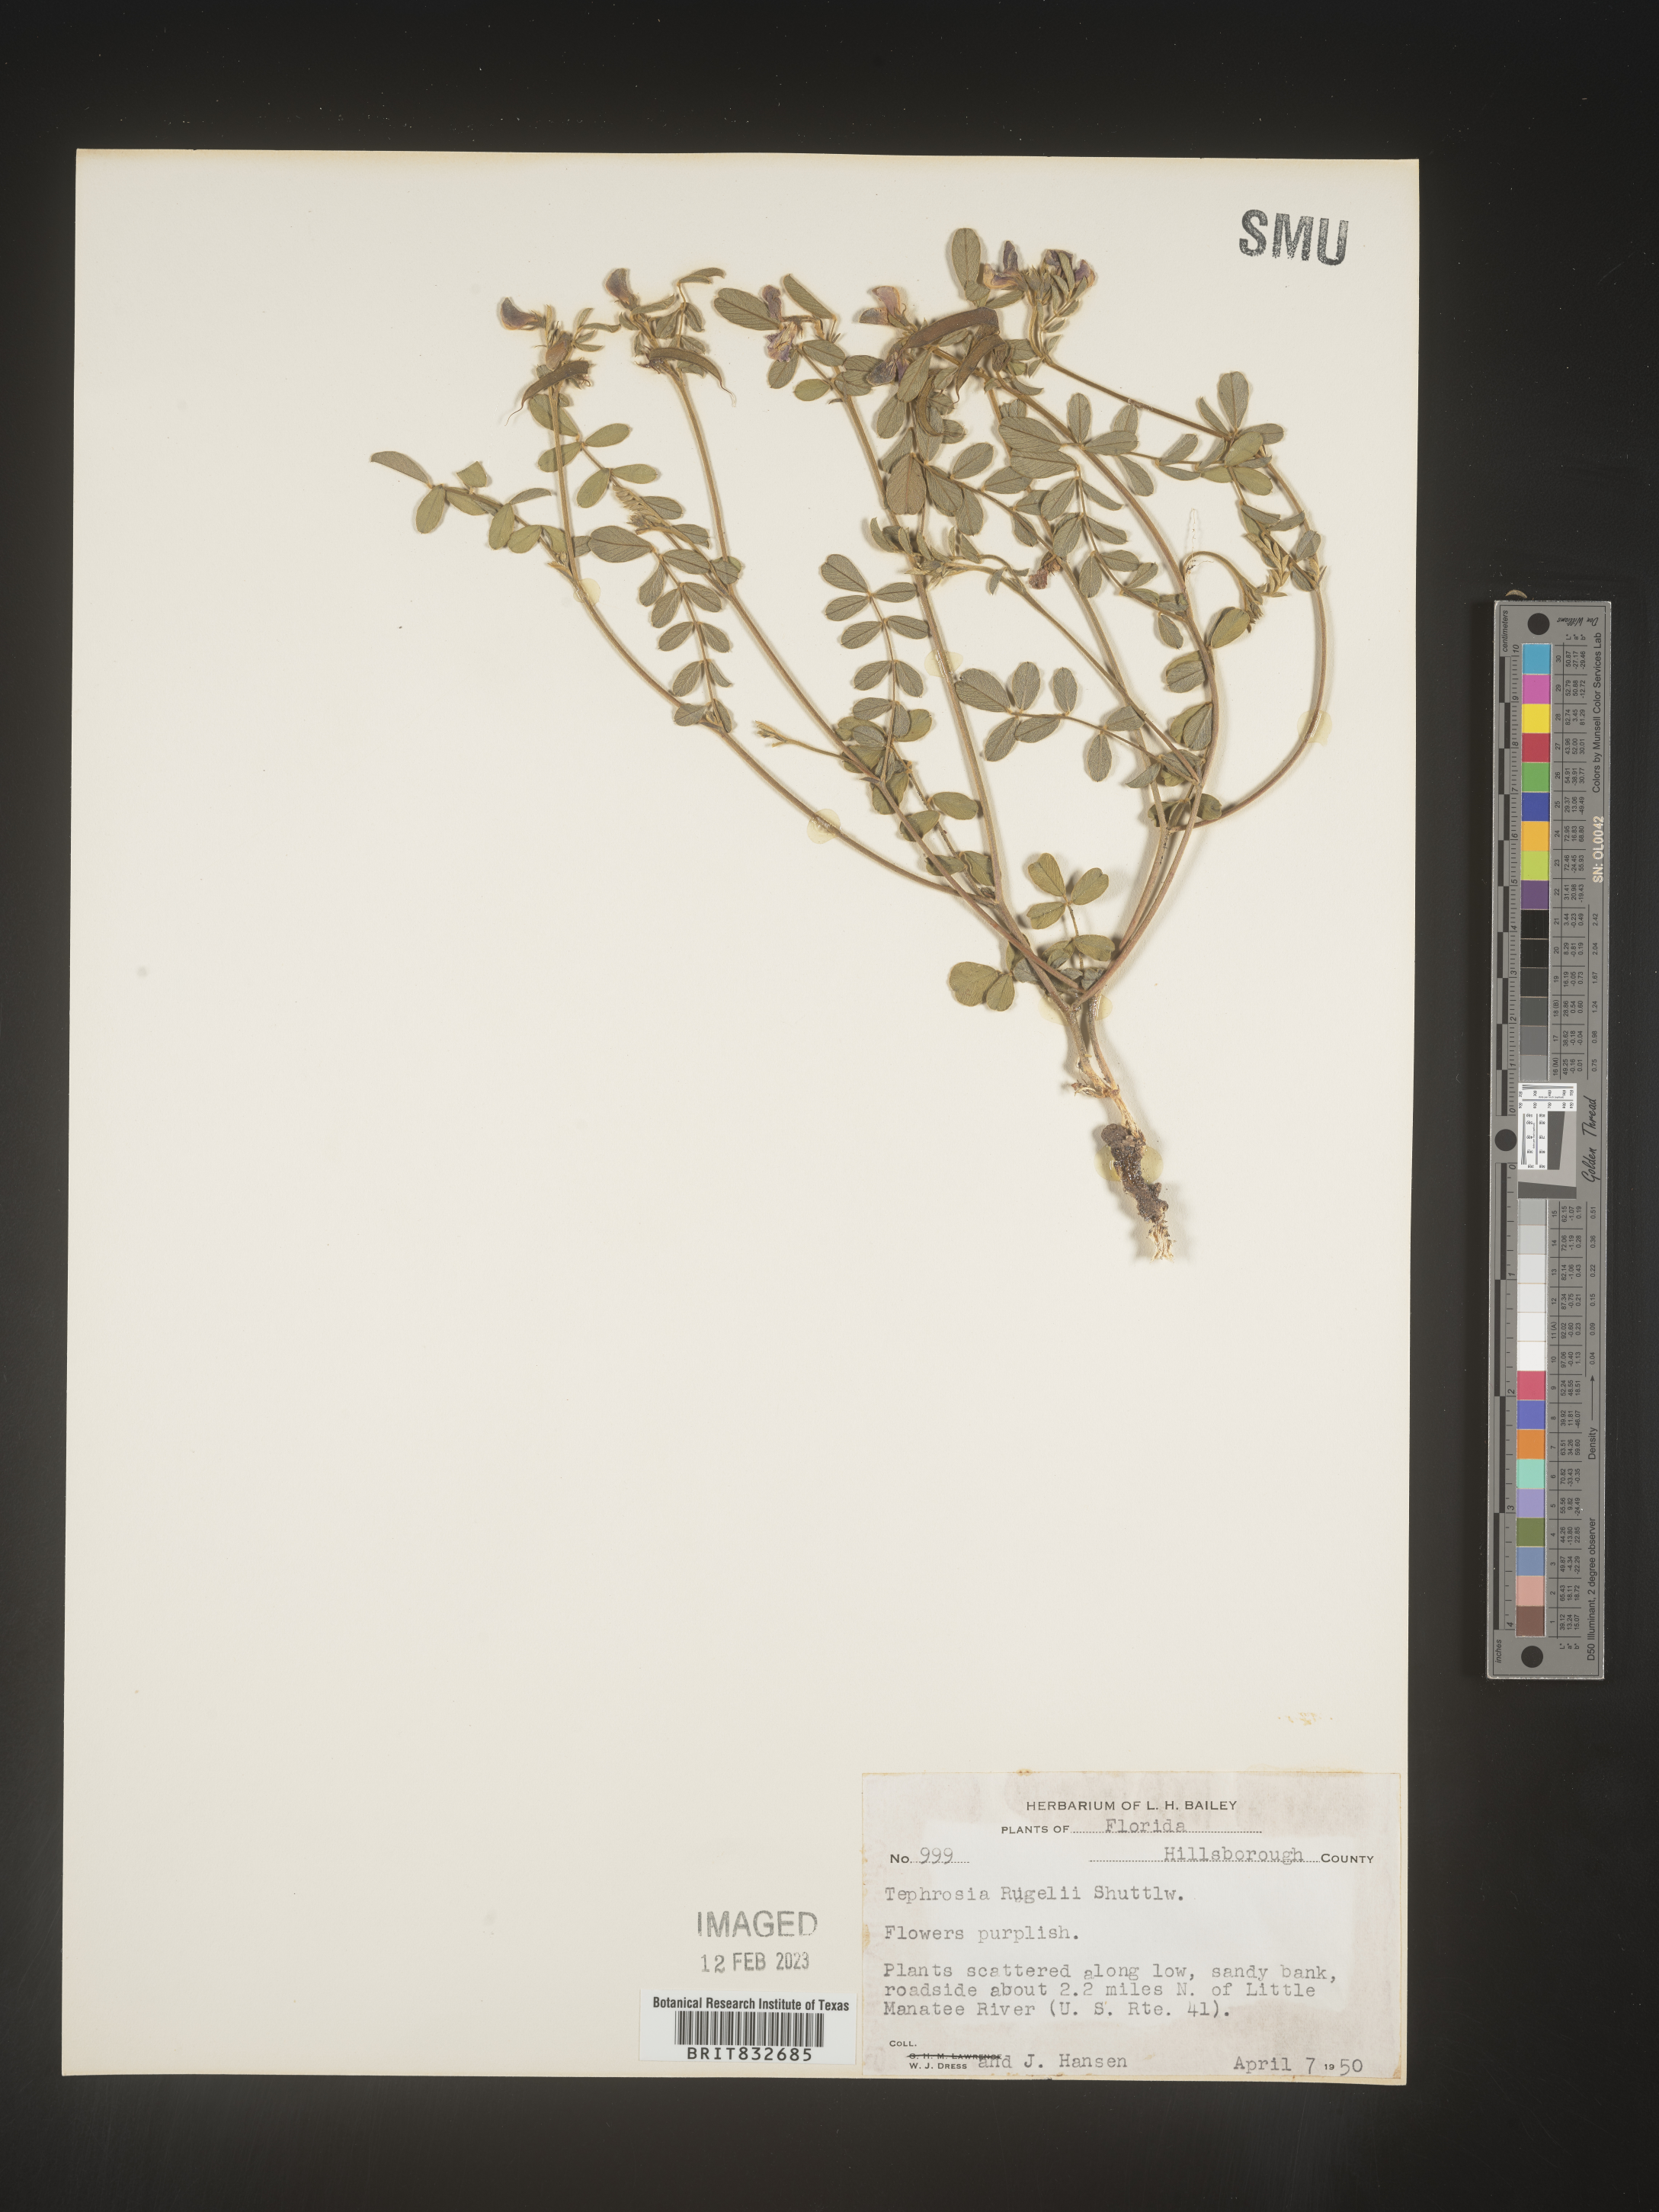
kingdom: Plantae
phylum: Tracheophyta
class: Magnoliopsida
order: Fabales
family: Fabaceae
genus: Tephrosia
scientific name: Tephrosia rugelii
